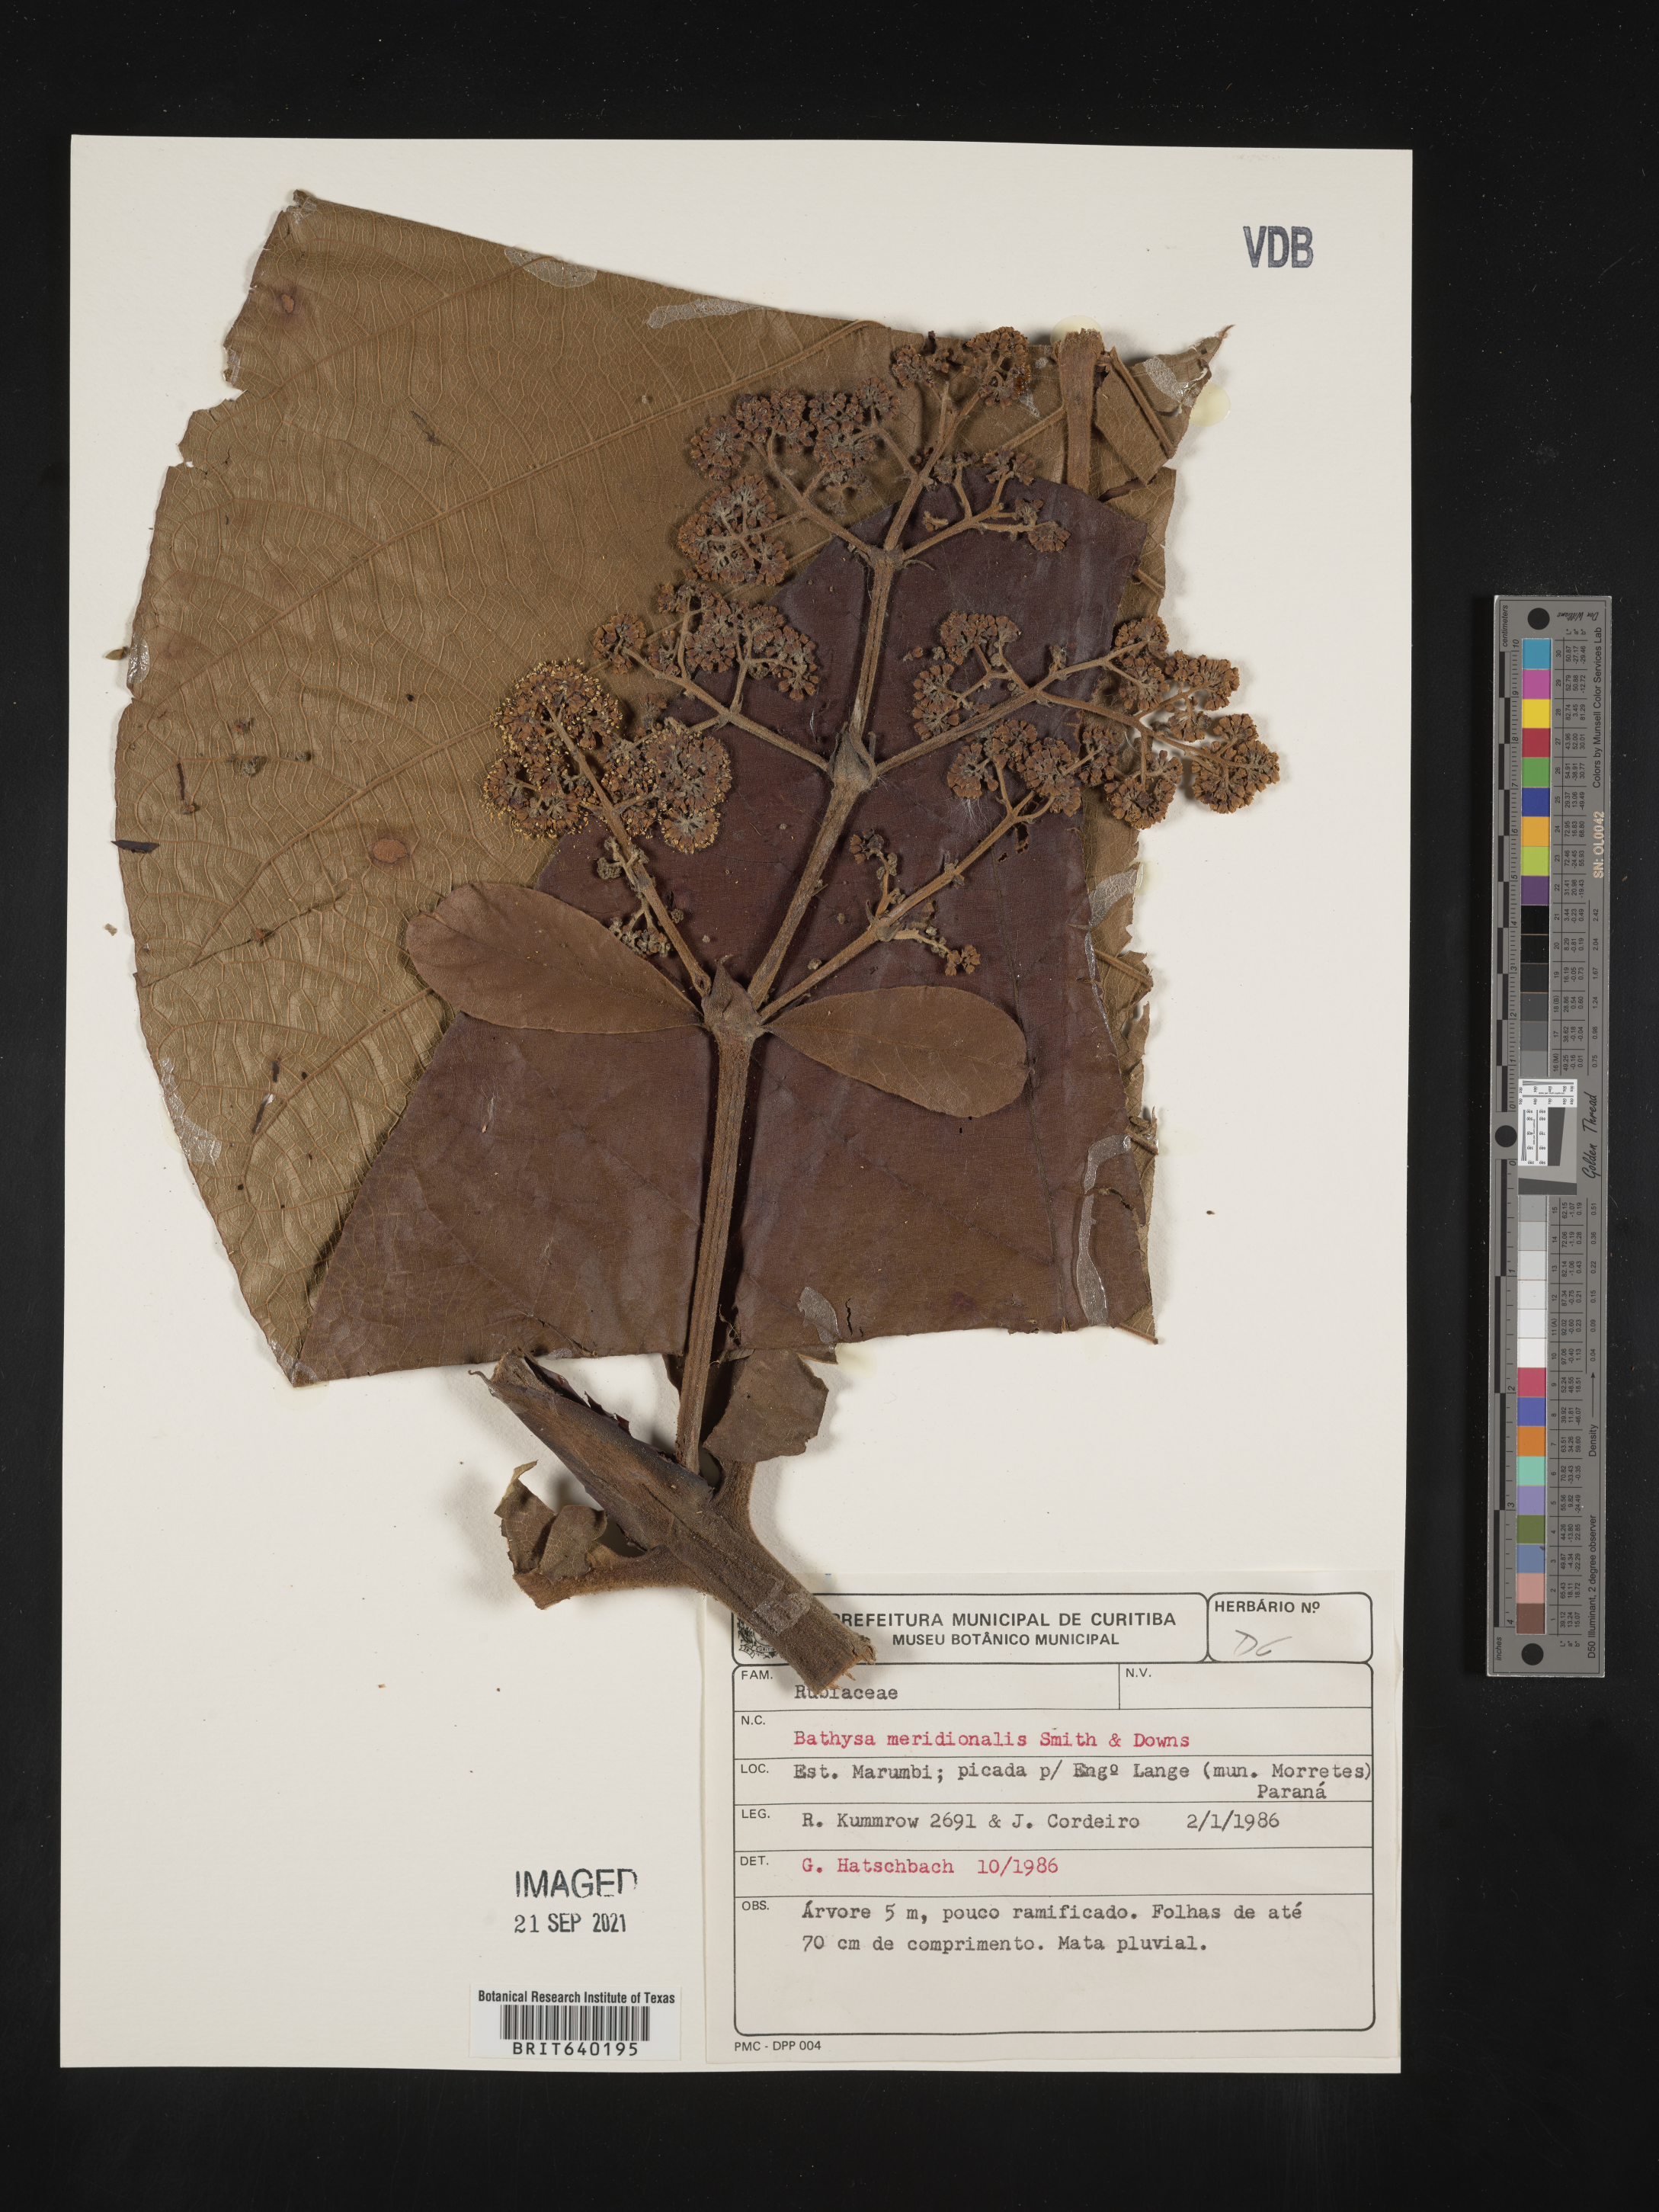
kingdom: Plantae
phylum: Tracheophyta
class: Magnoliopsida
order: Gentianales
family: Rubiaceae
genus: Bathysa
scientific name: Bathysa
